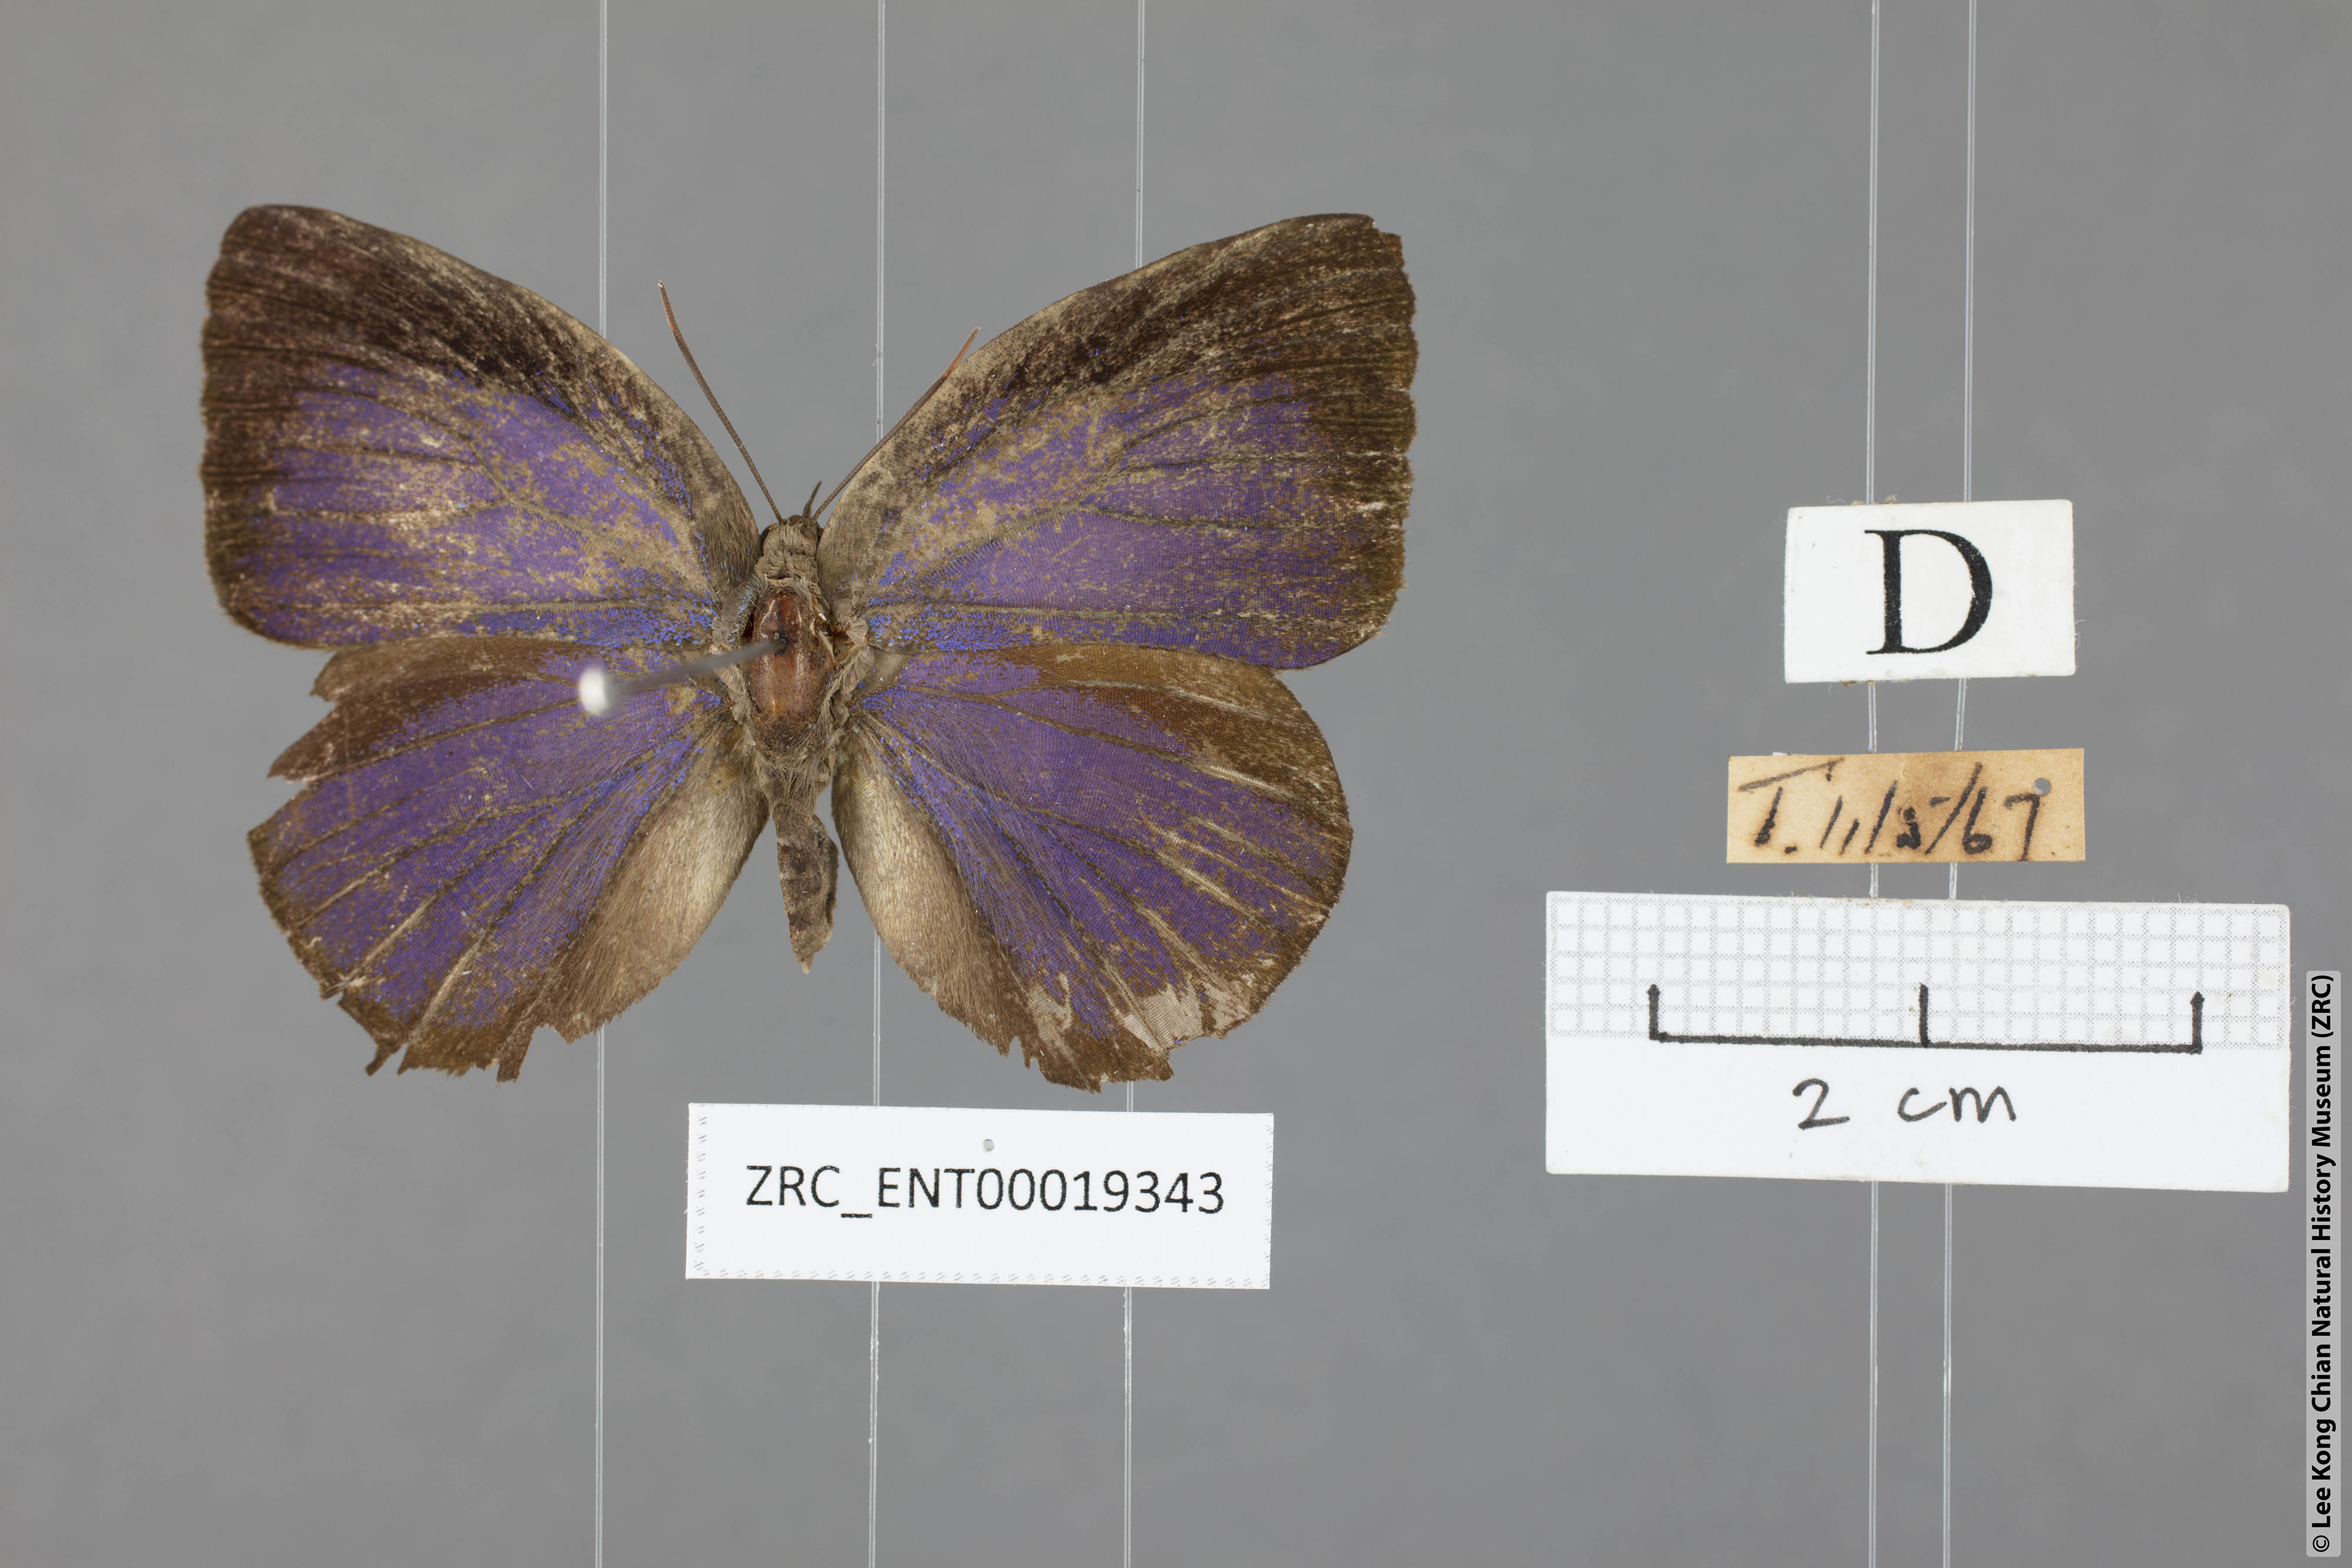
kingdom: Animalia
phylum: Arthropoda
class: Insecta
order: Lepidoptera
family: Lycaenidae
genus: Arhopala
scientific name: Arhopala centaurus
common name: Dull oak-blue
